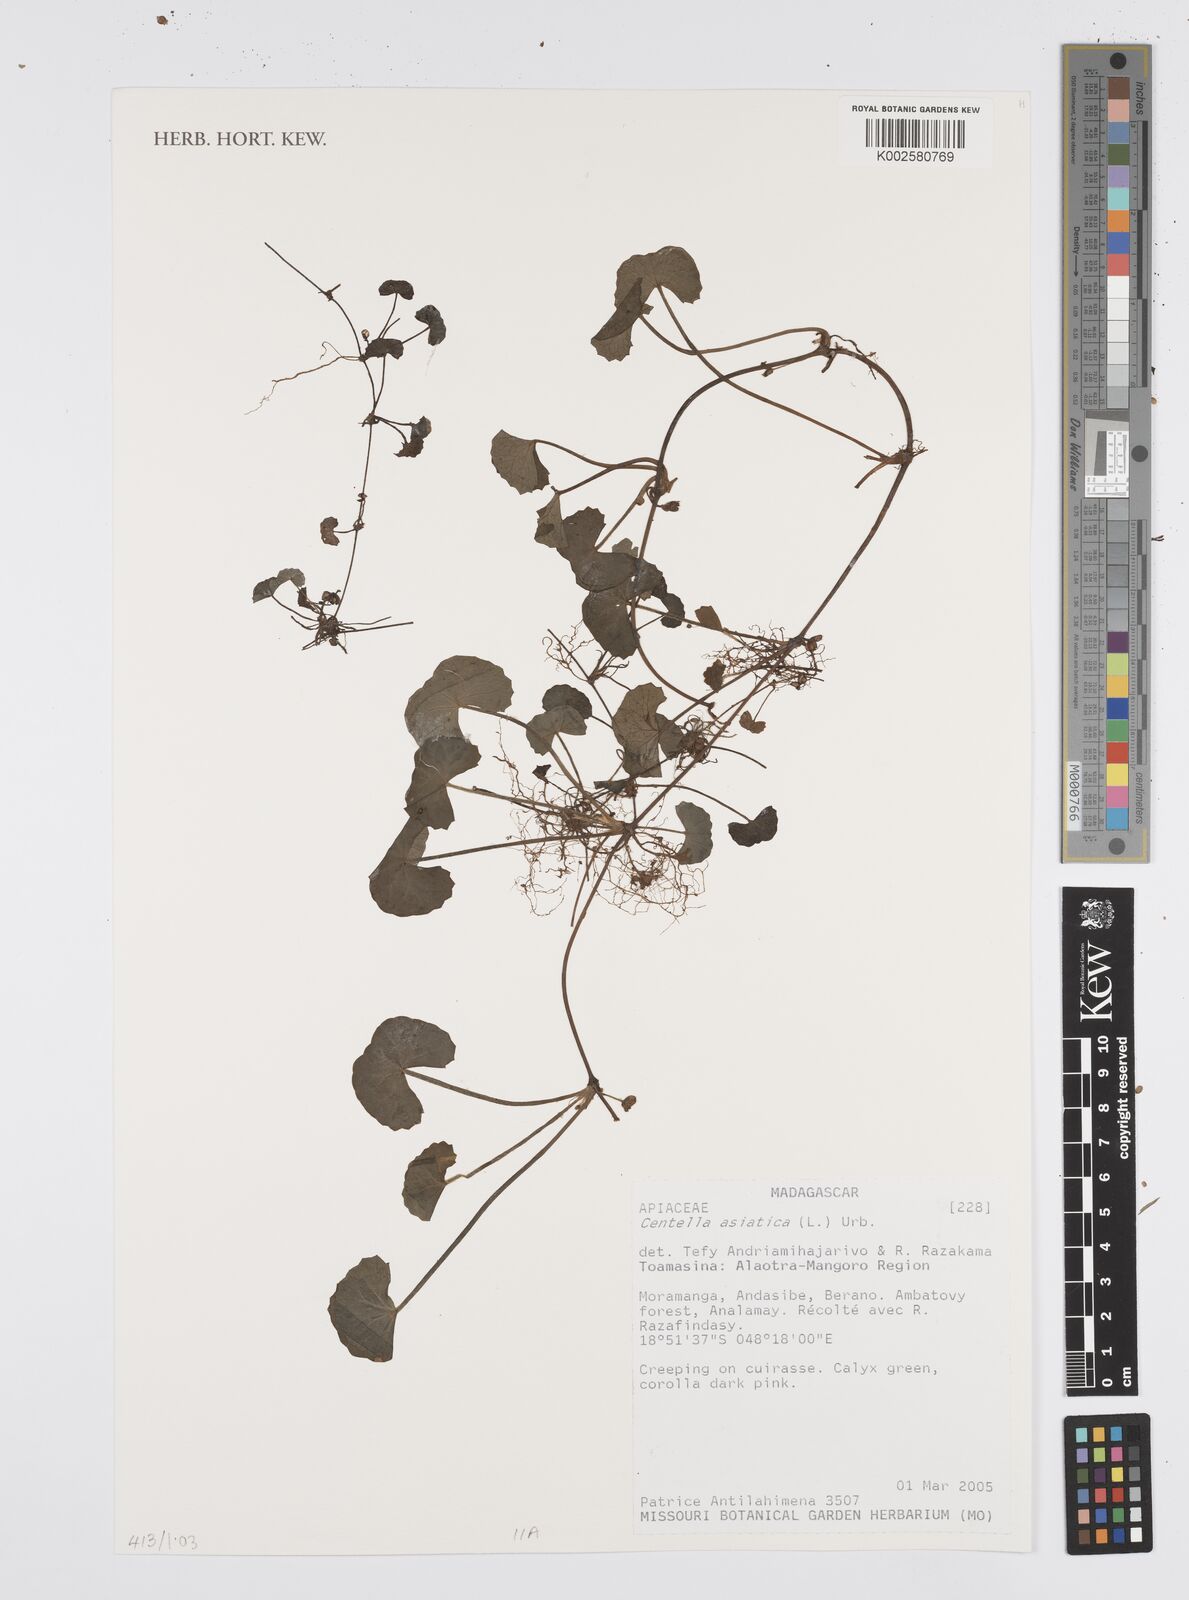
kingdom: Plantae
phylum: Tracheophyta
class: Magnoliopsida
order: Apiales
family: Apiaceae
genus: Centella
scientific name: Centella asiatica
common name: Spadeleaf
